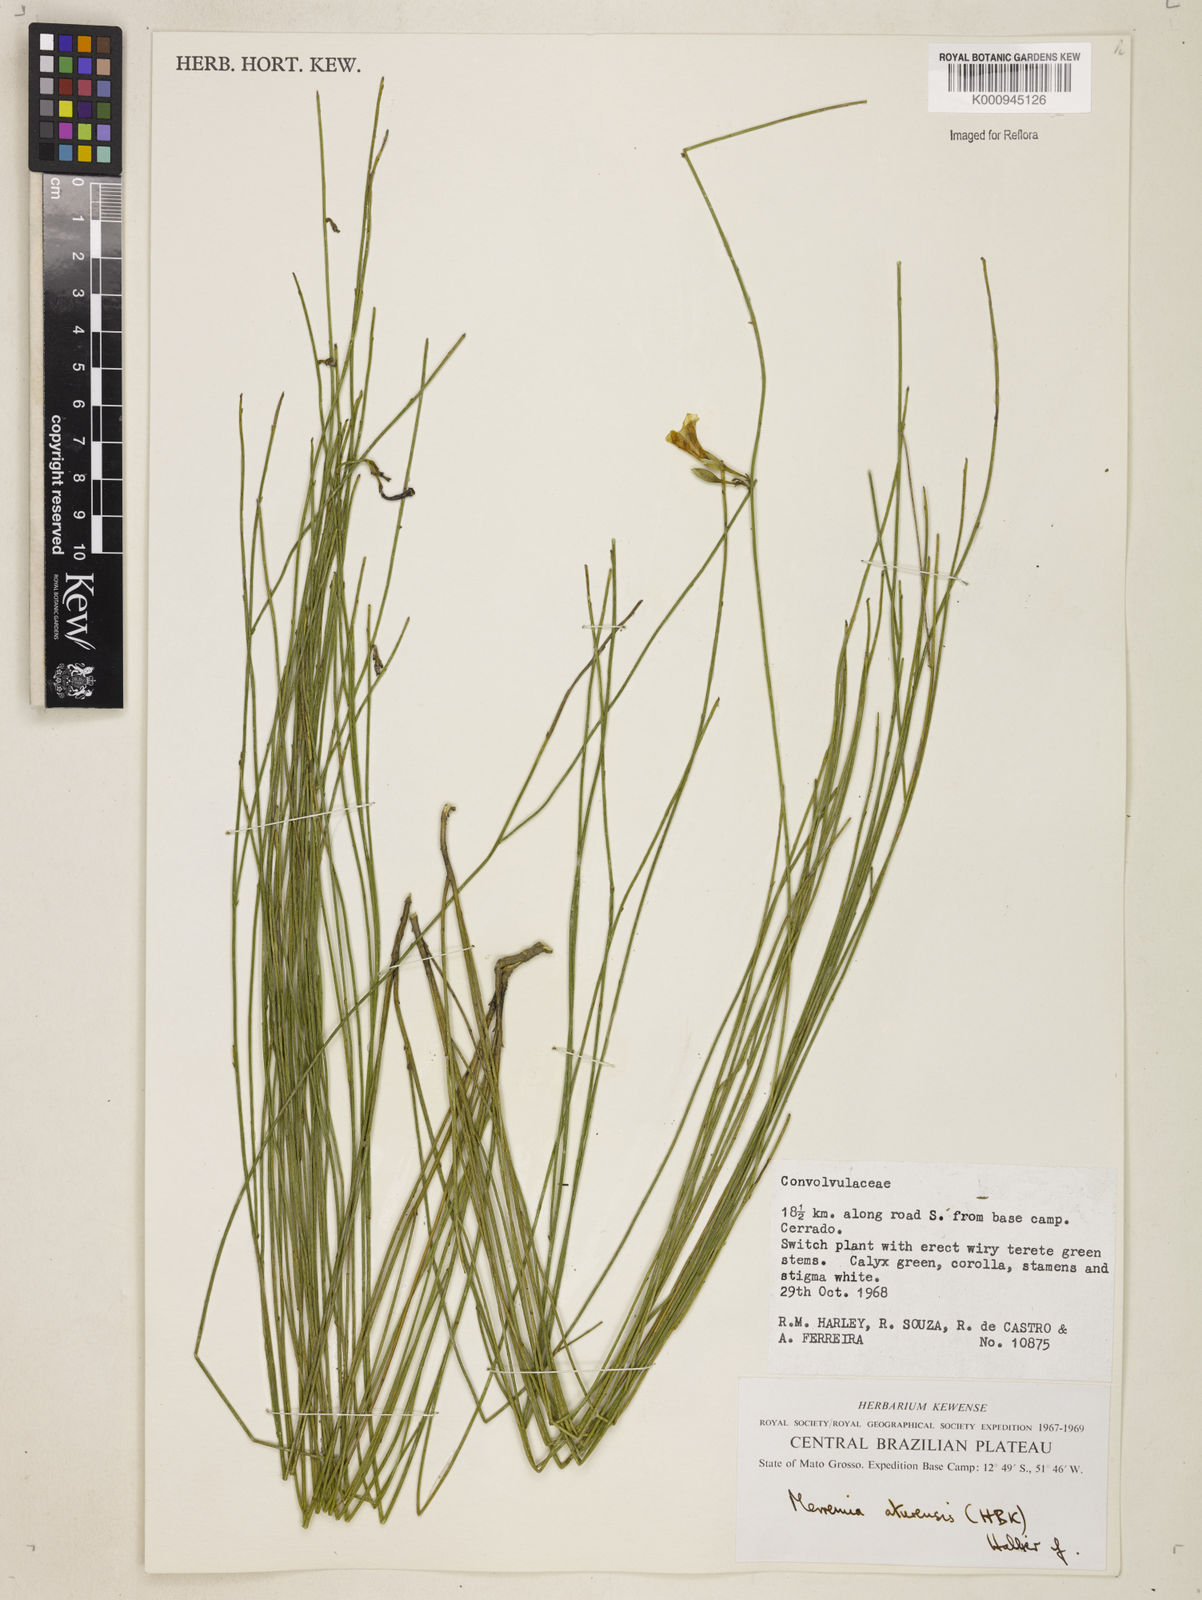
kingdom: Plantae
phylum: Tracheophyta
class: Magnoliopsida
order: Solanales
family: Convolvulaceae
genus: Distimake
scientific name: Distimake aturensis
